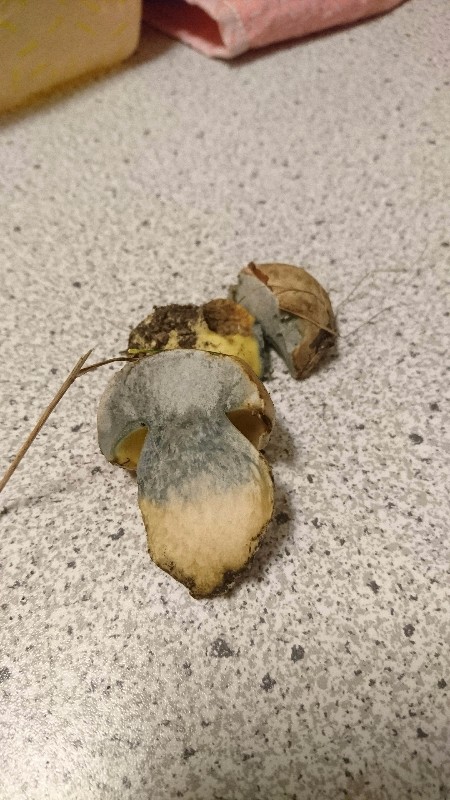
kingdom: Fungi
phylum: Basidiomycota
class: Agaricomycetes
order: Boletales
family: Boletaceae
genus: Caloboletus
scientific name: Caloboletus radicans
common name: rod-rørhat
